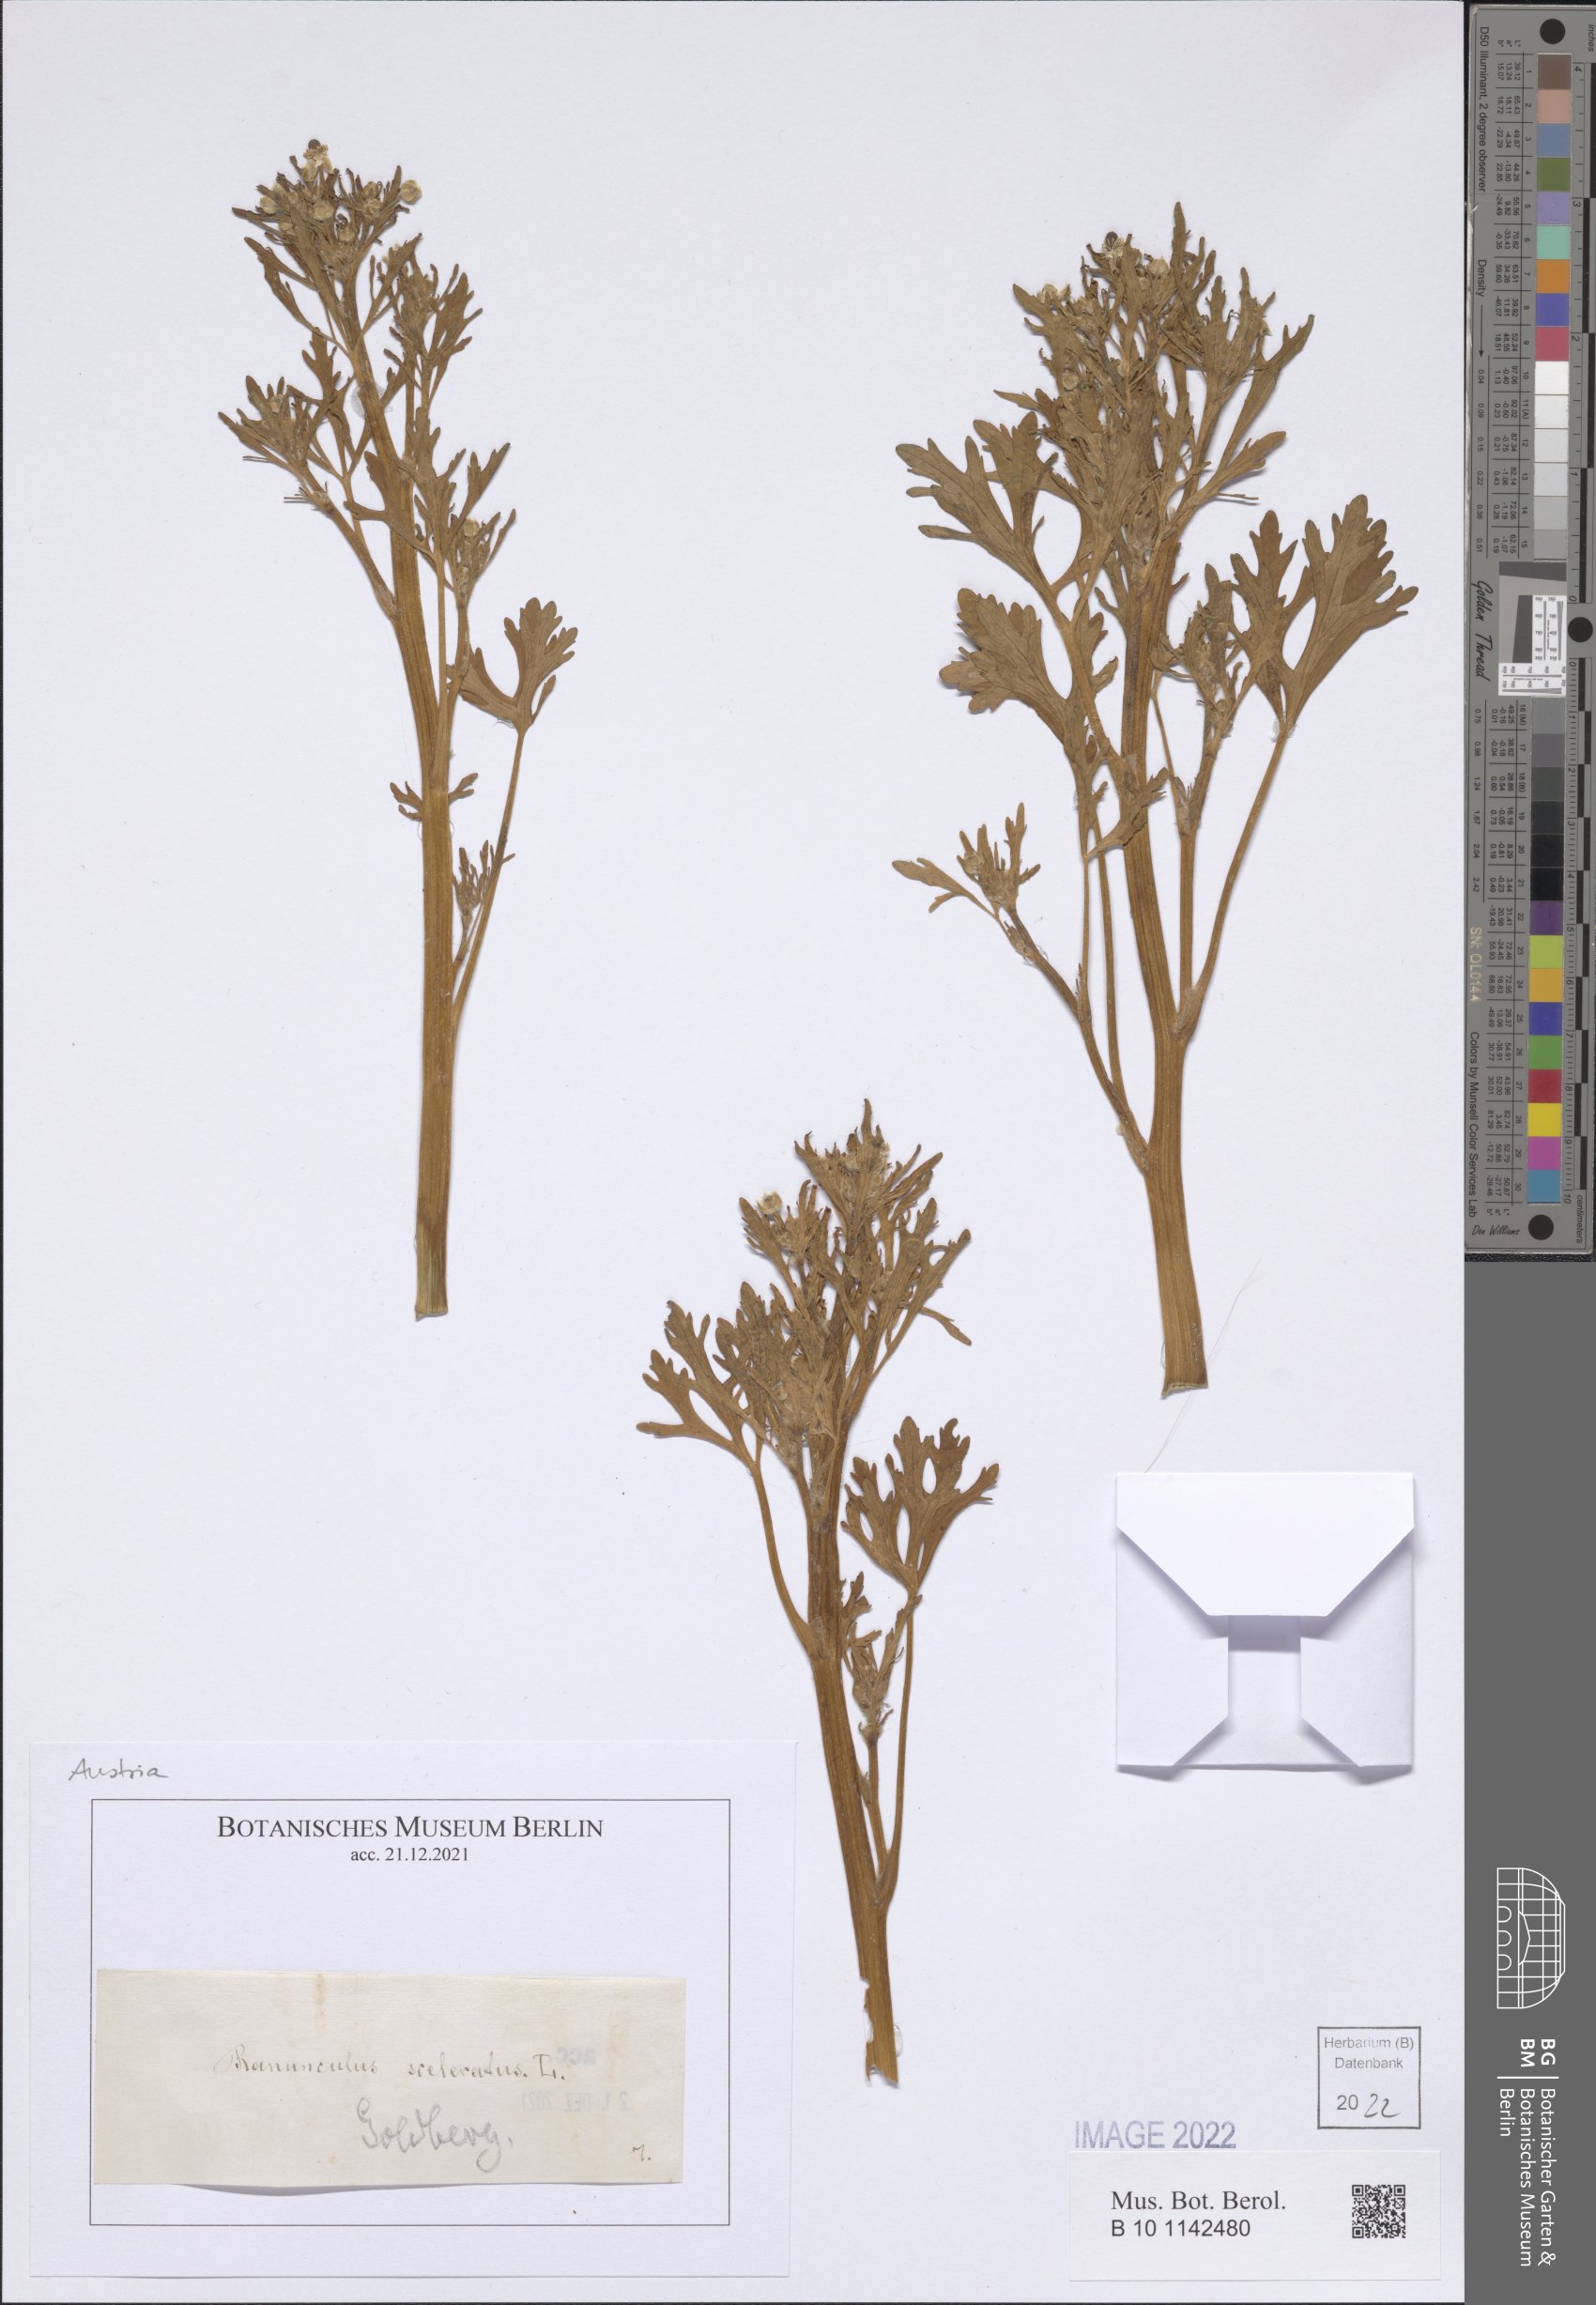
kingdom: Plantae
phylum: Tracheophyta
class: Magnoliopsida
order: Ranunculales
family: Ranunculaceae
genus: Ranunculus
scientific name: Ranunculus sceleratus
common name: Celery-leaved buttercup
